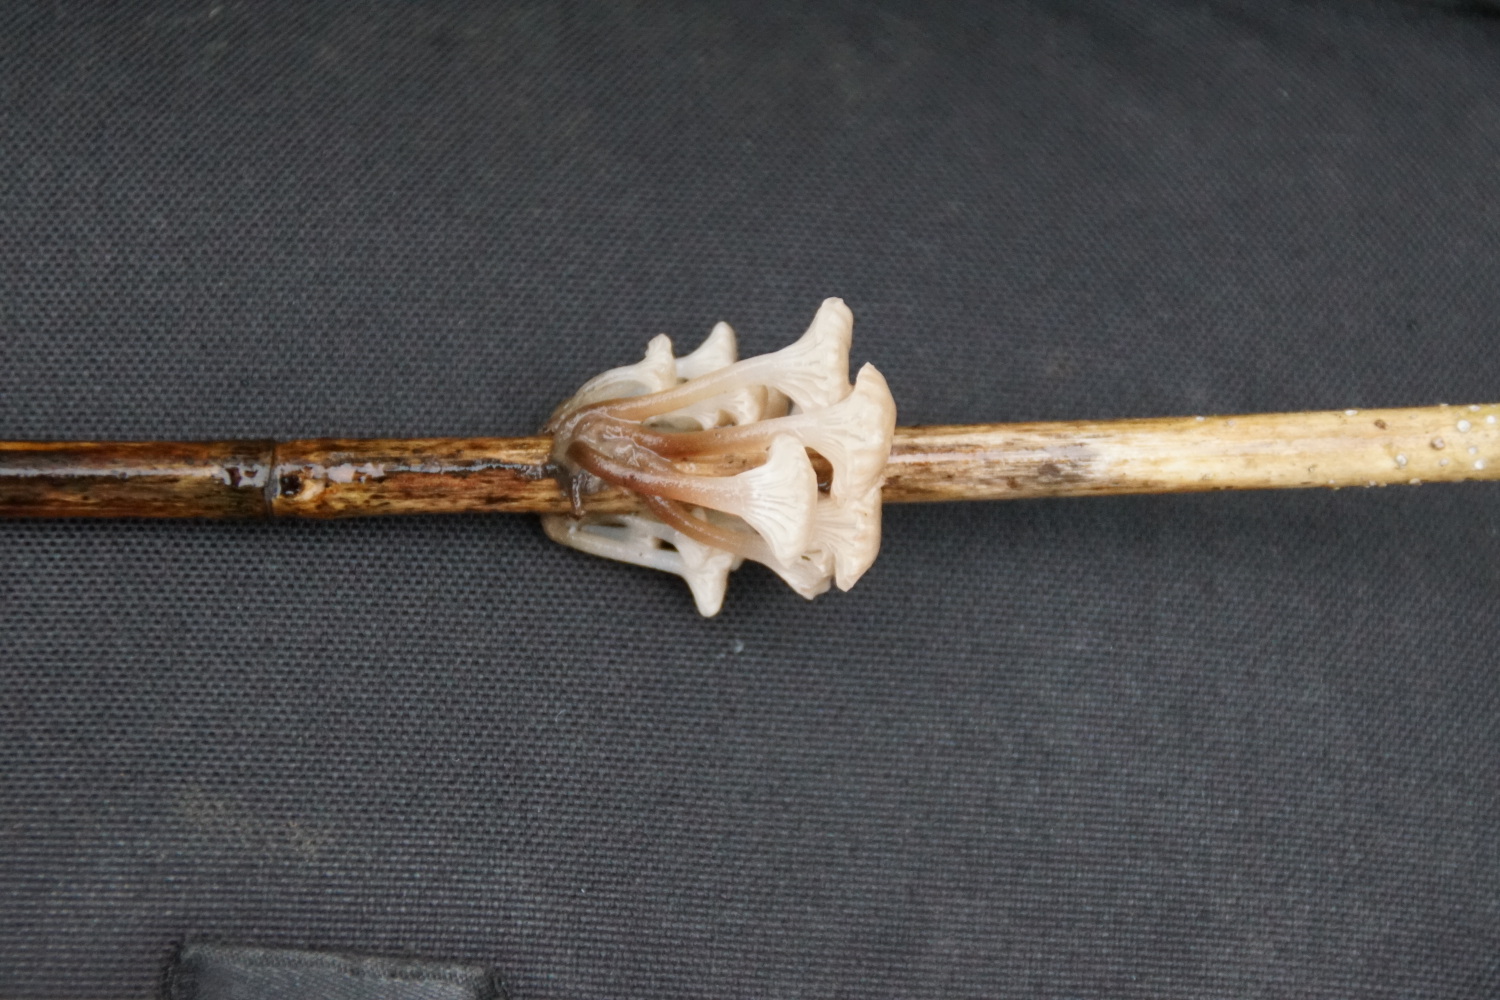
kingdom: Fungi
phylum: Basidiomycota
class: Agaricomycetes
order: Agaricales
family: Mycenaceae
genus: Mycena
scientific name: Mycena belliae
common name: tagrørs-huesvamp
